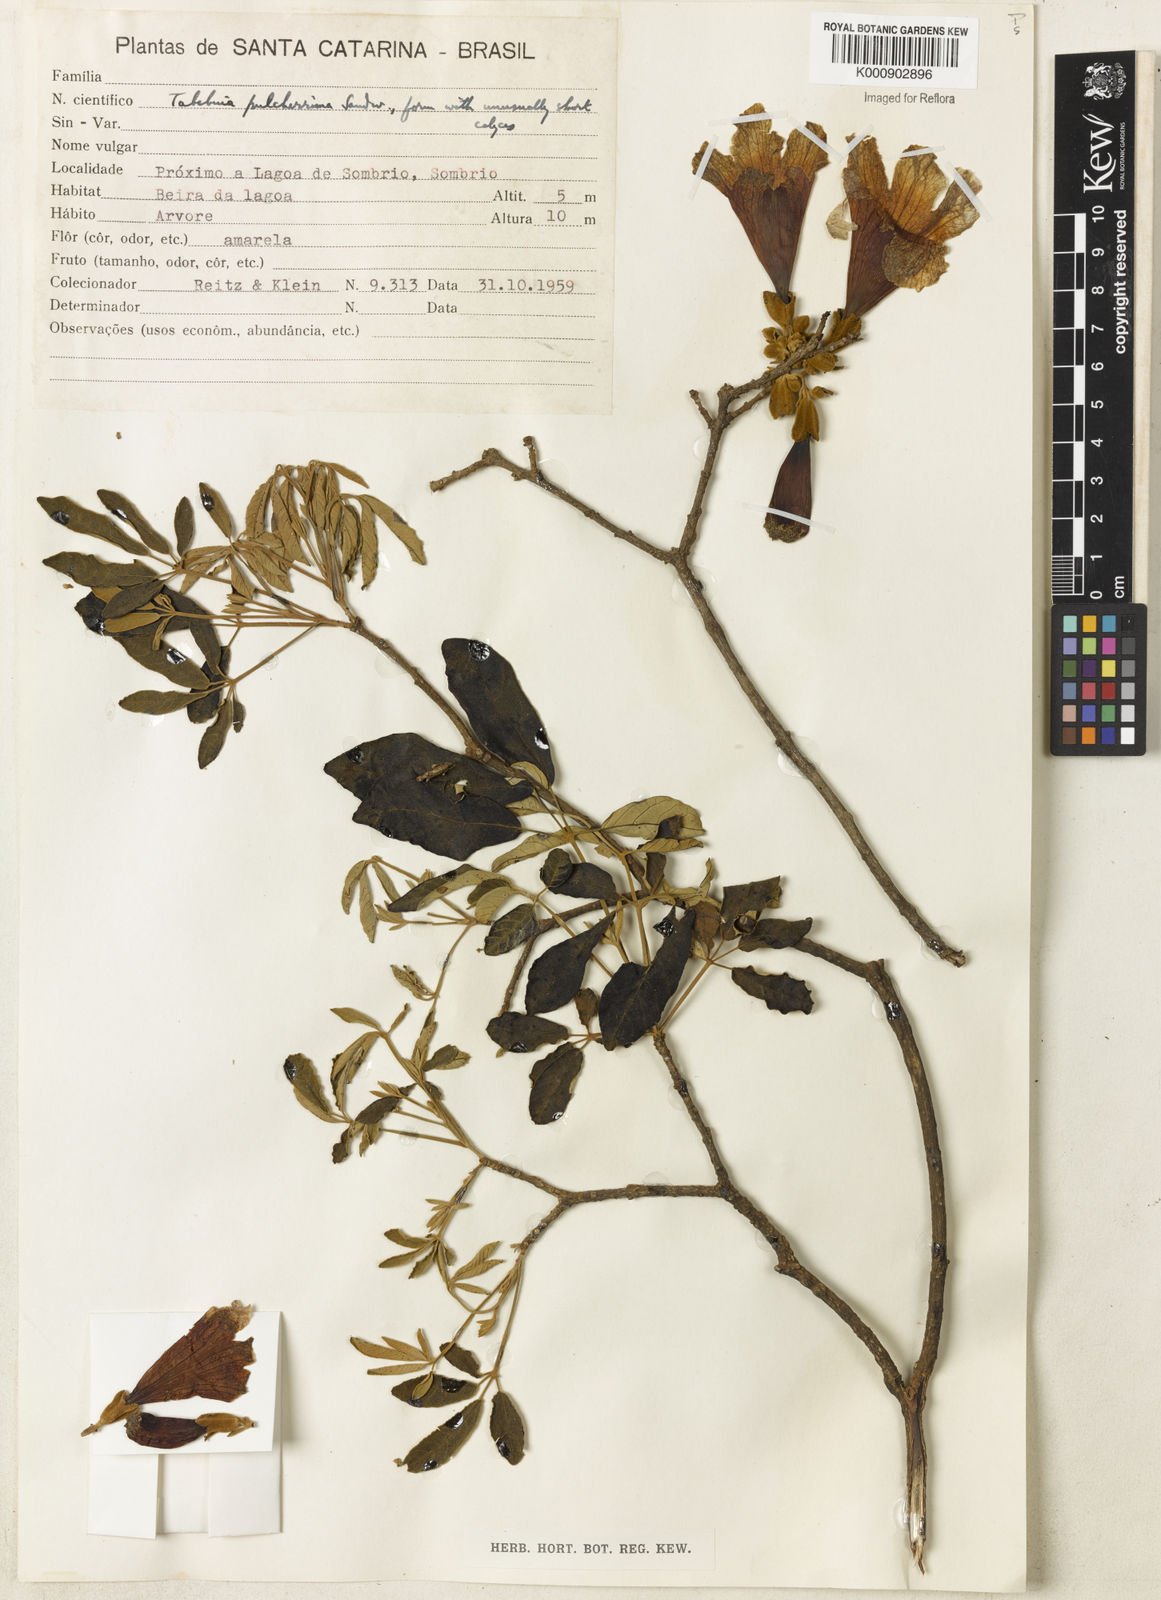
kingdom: Plantae
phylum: Tracheophyta
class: Magnoliopsida
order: Lamiales
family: Bignoniaceae
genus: Handroanthus
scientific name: Handroanthus pulcherrimus
